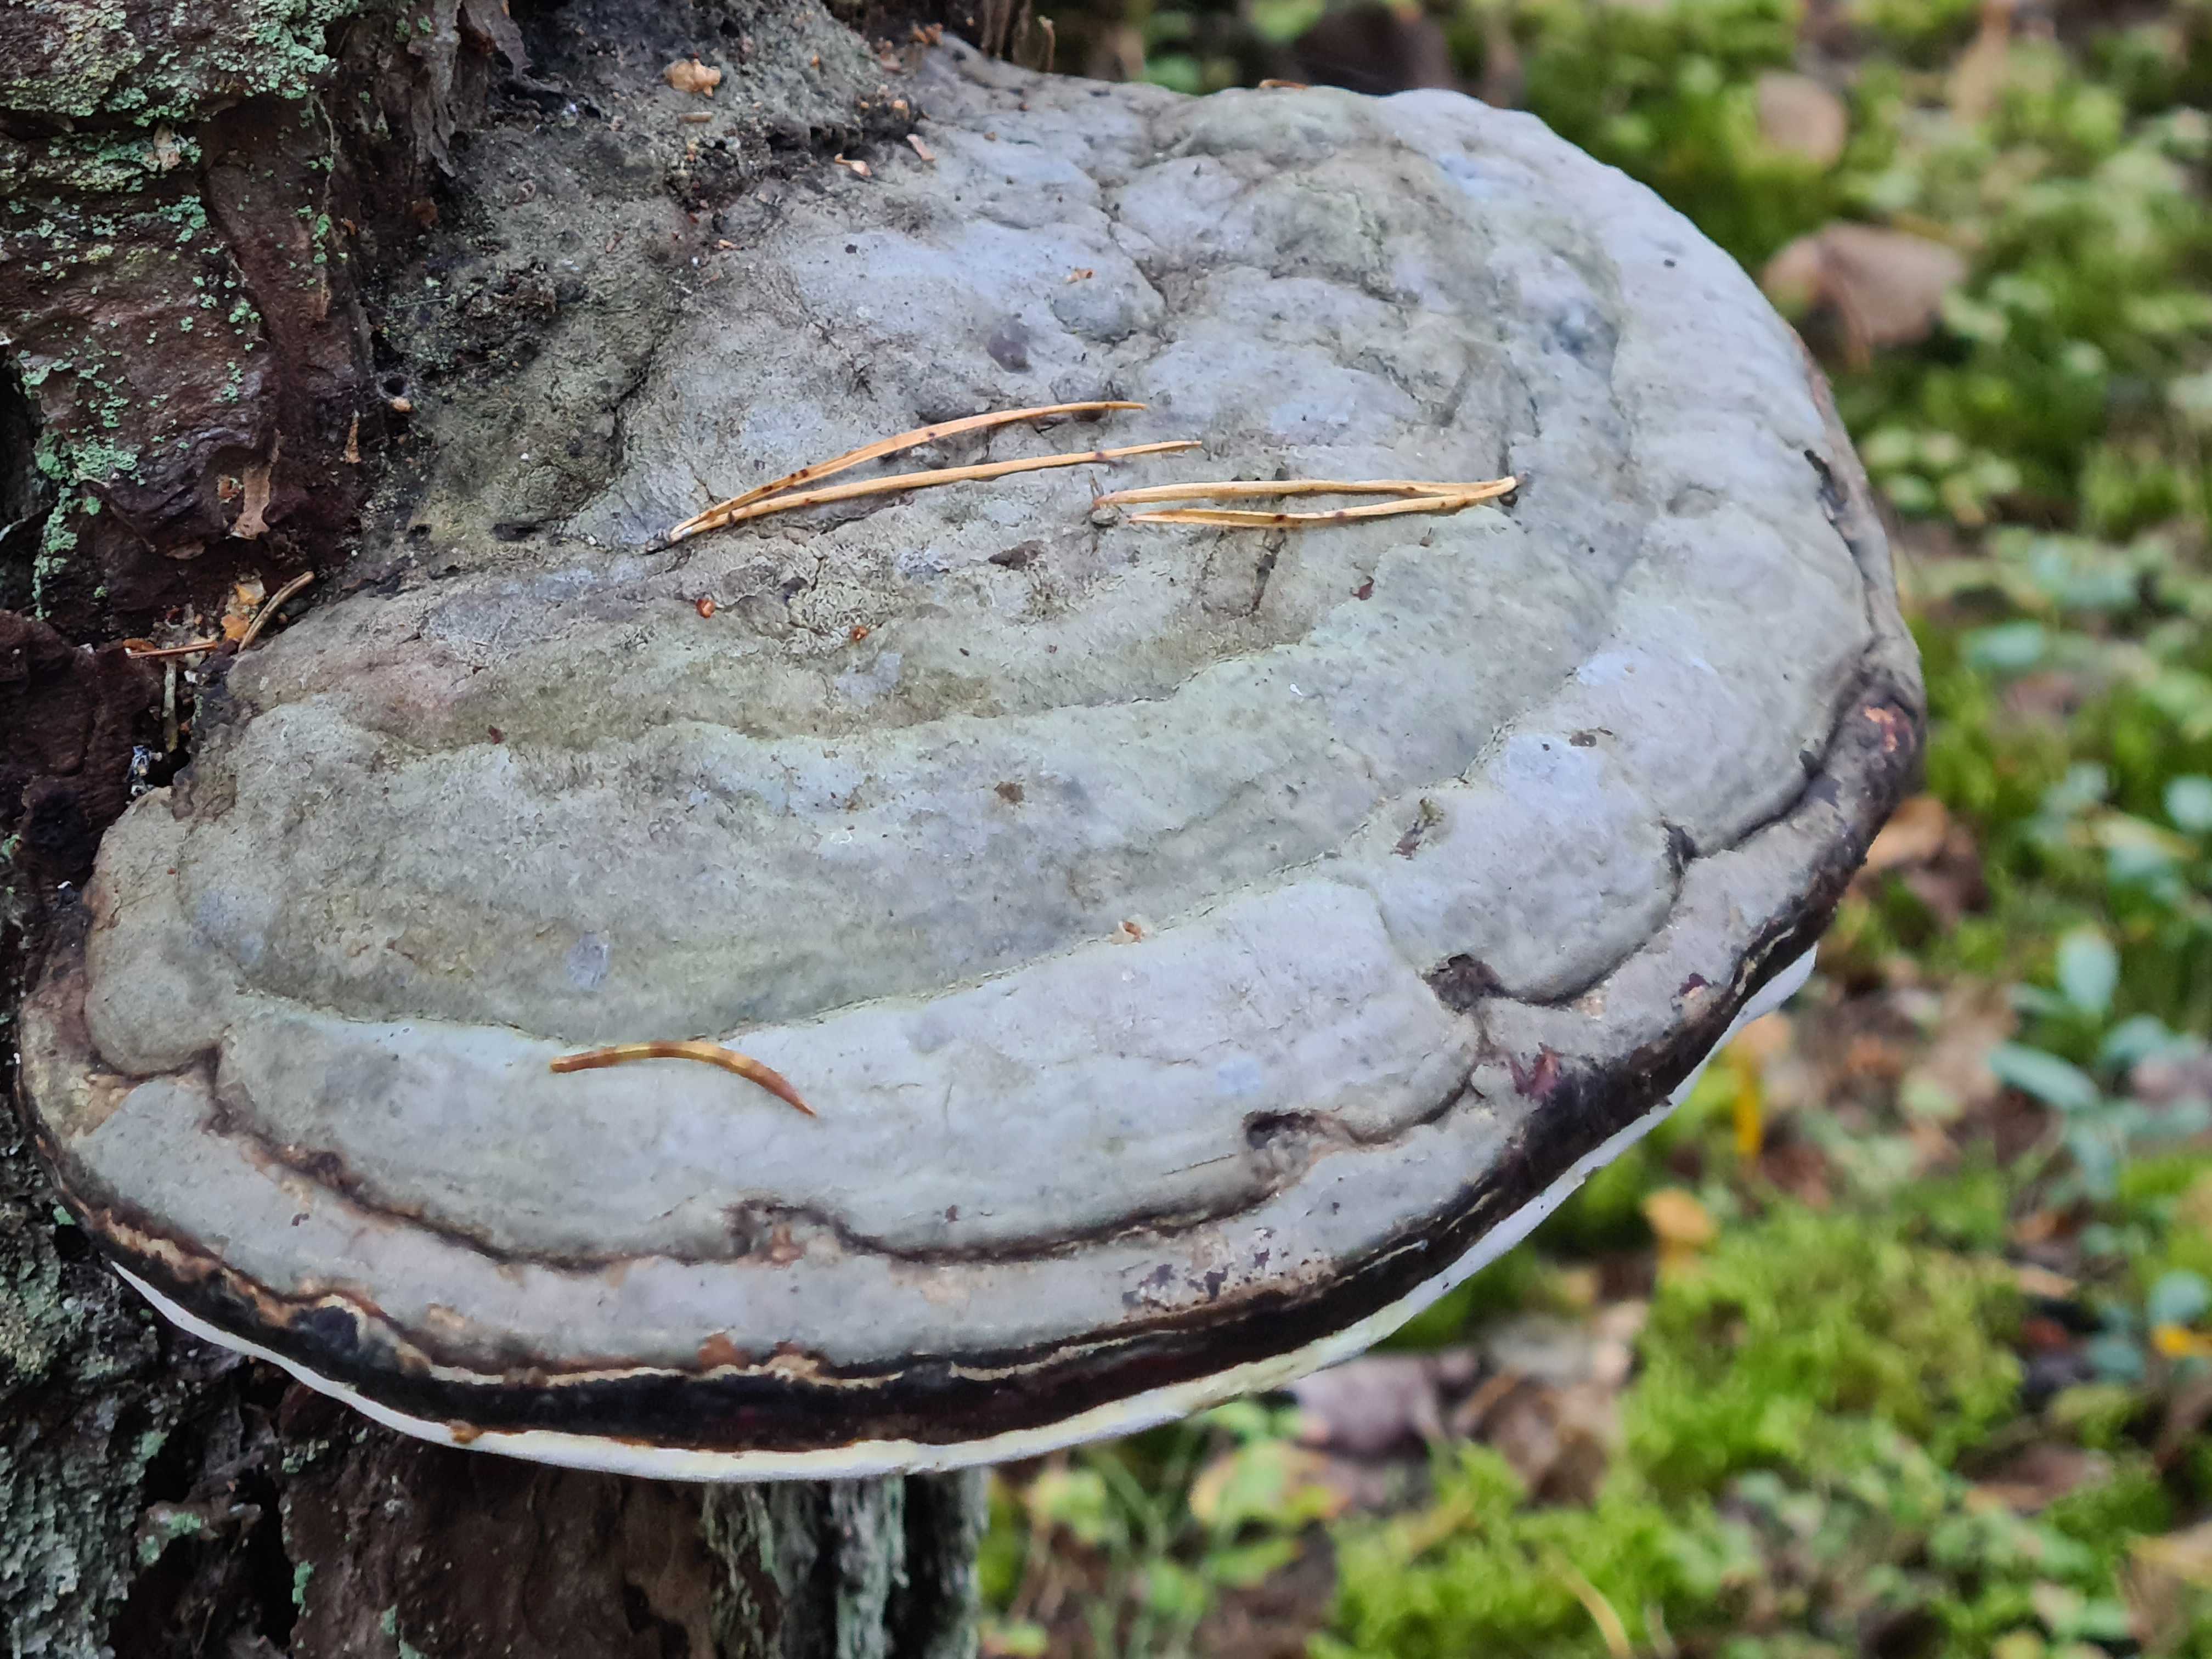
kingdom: Fungi
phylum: Basidiomycota
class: Agaricomycetes
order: Polyporales
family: Polyporaceae
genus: Fomes
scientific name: Fomes fomentarius
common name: tøndersvamp
